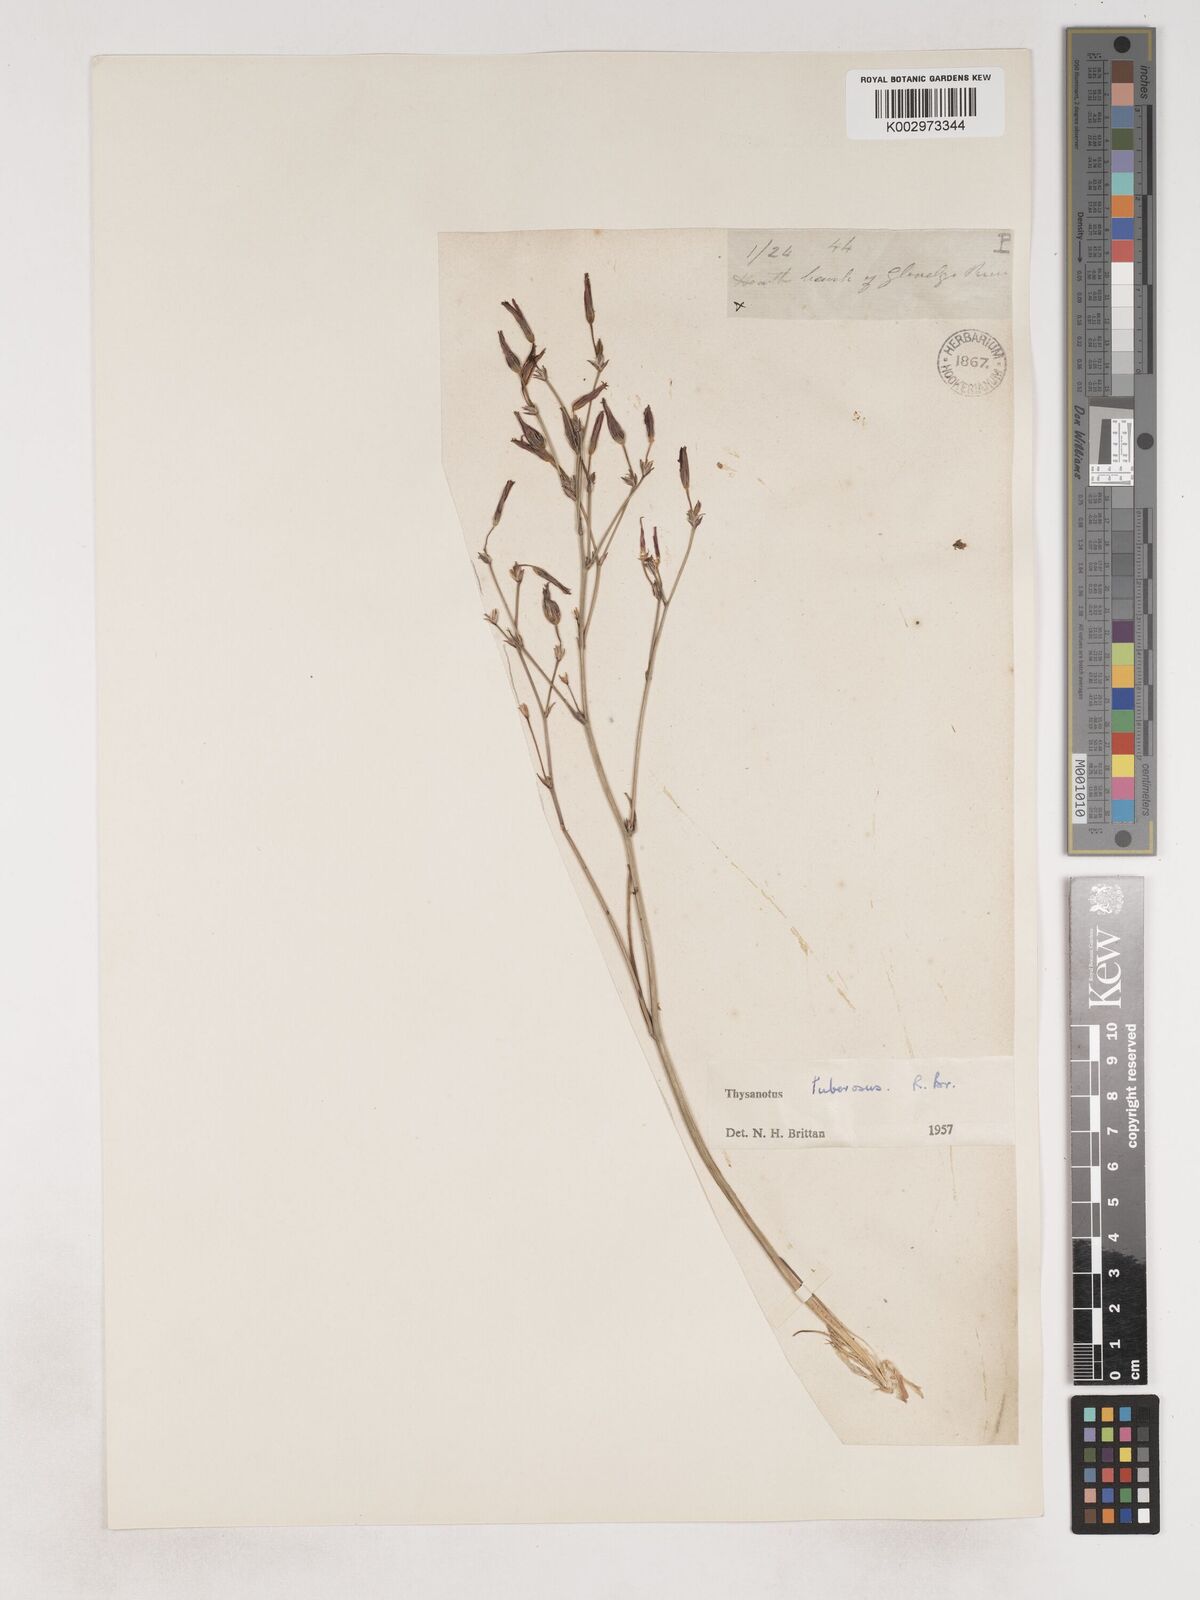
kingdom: Plantae
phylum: Tracheophyta
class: Liliopsida
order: Asparagales
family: Asparagaceae
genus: Thysanotus
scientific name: Thysanotus tuberosus
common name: Common fringed-lily
